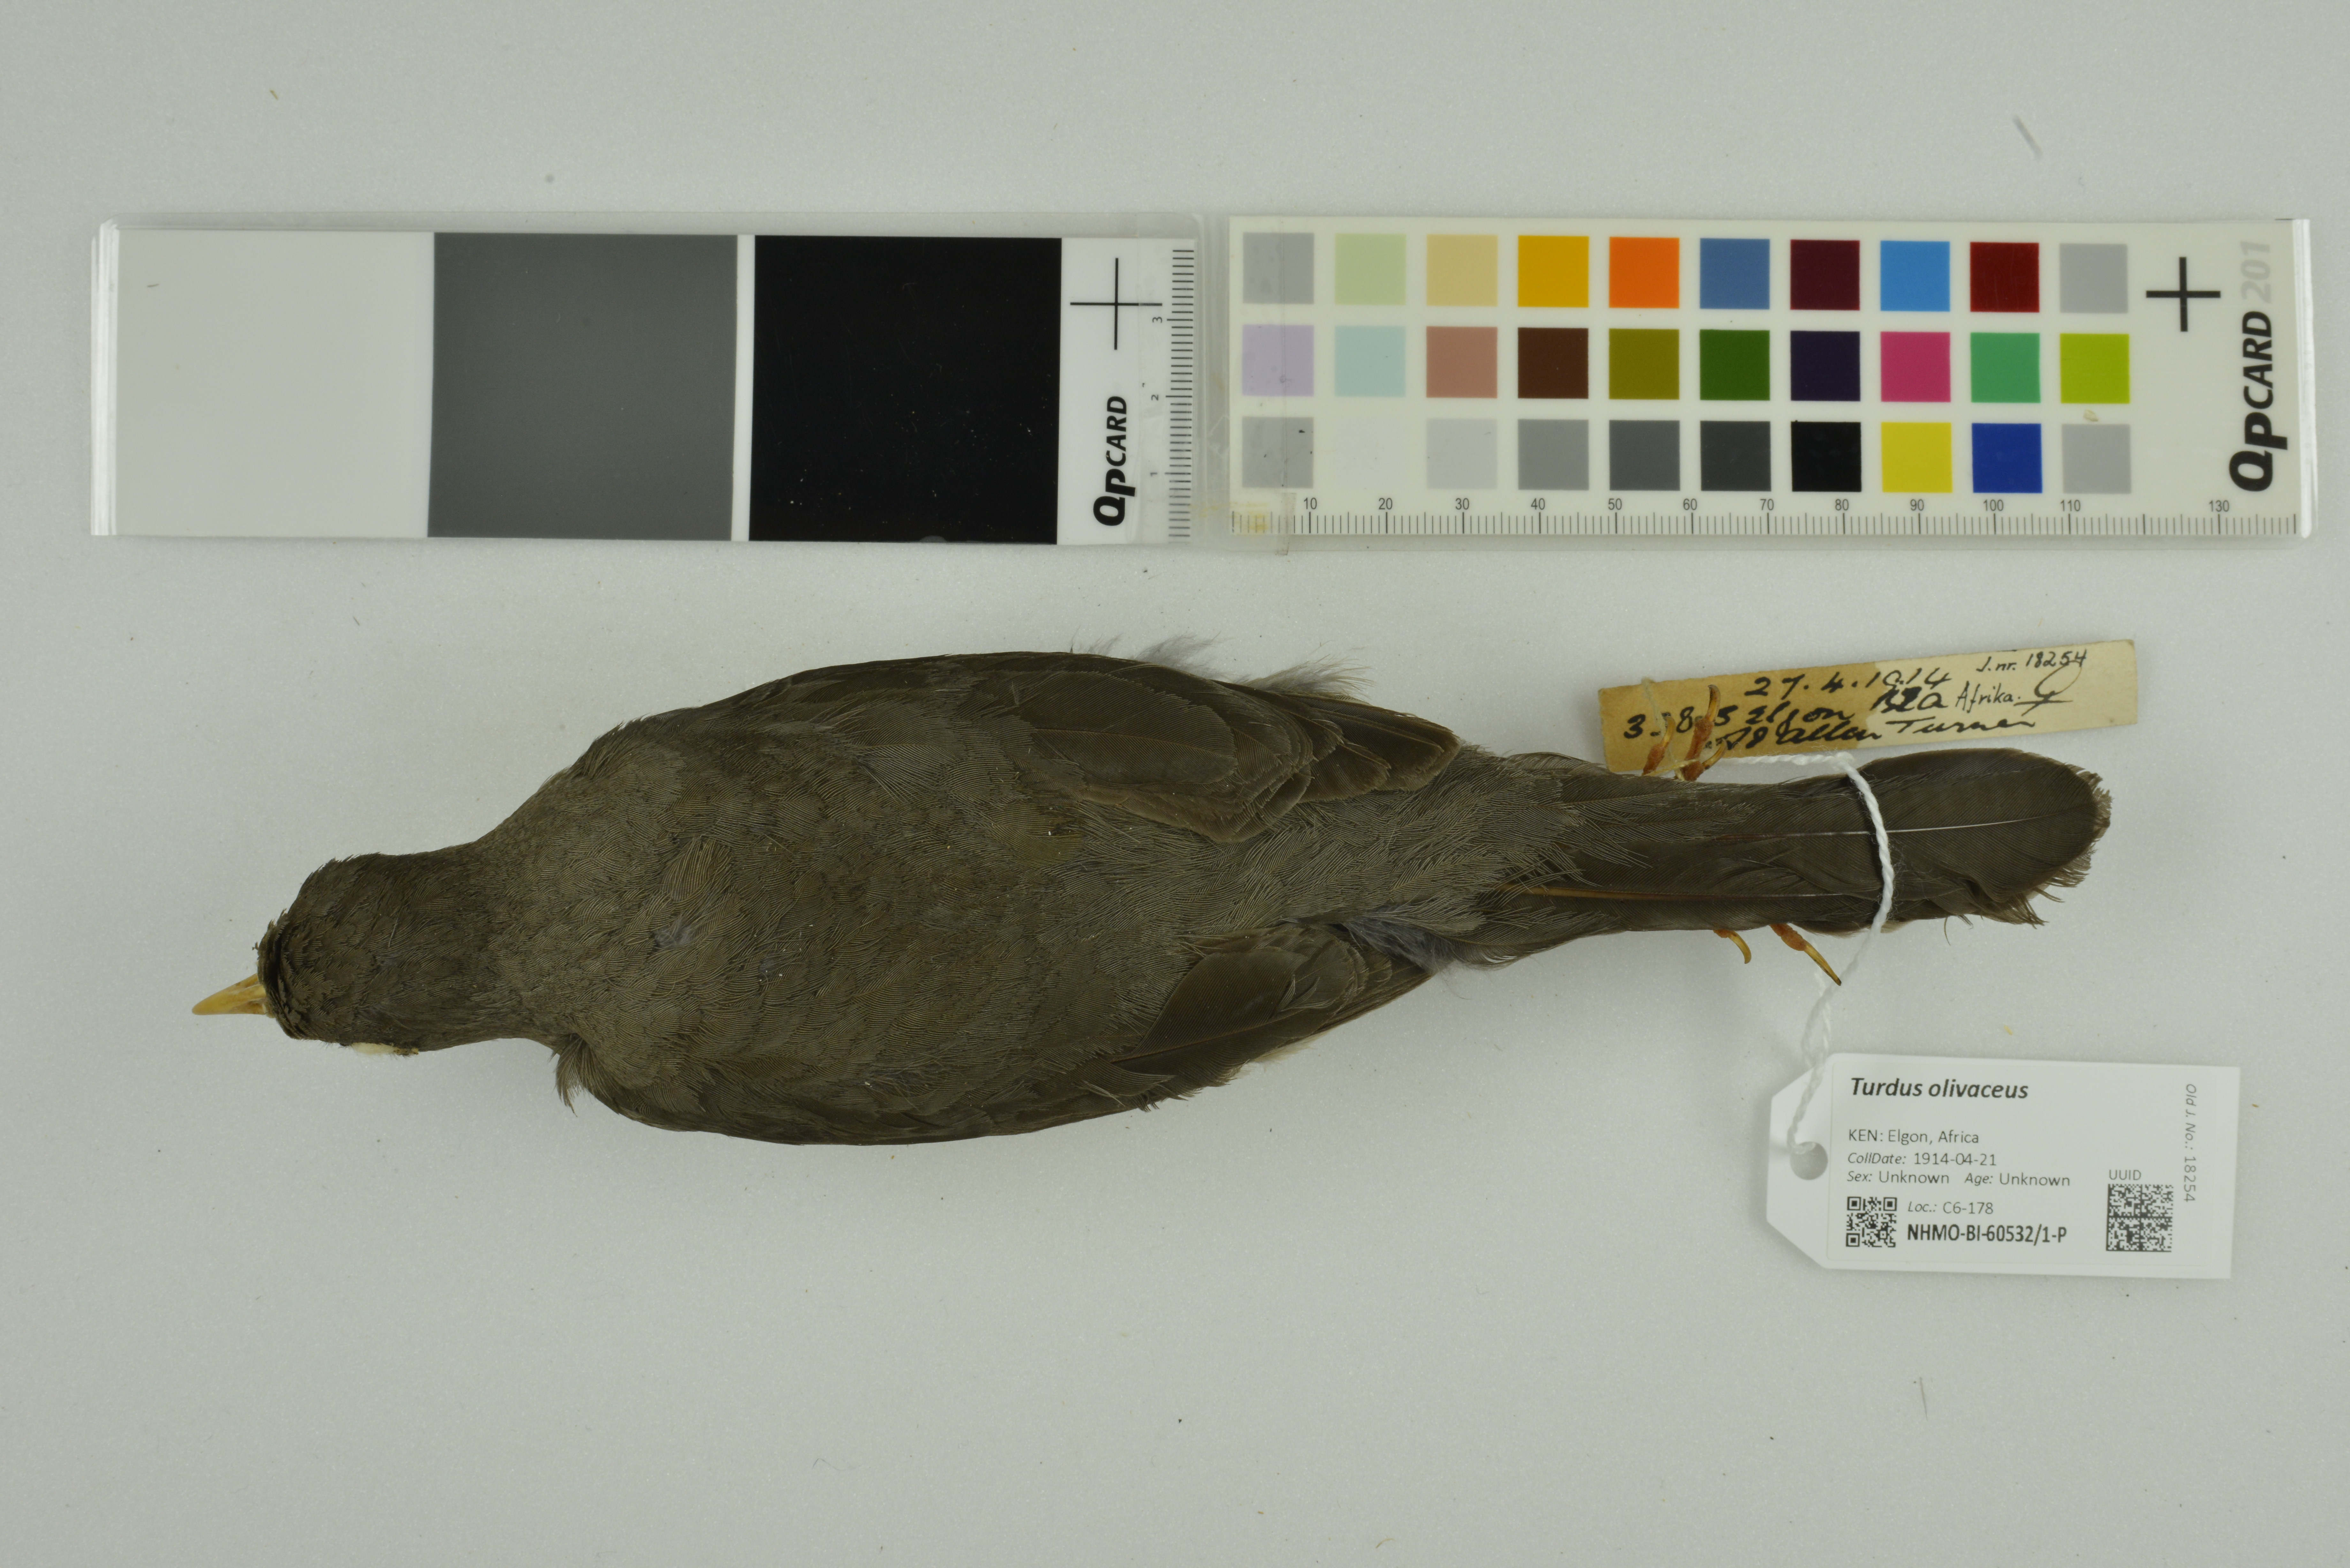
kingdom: Animalia
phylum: Chordata
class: Aves
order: Passeriformes
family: Turdidae
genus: Turdus
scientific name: Turdus olivaceus
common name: Olive thrush
